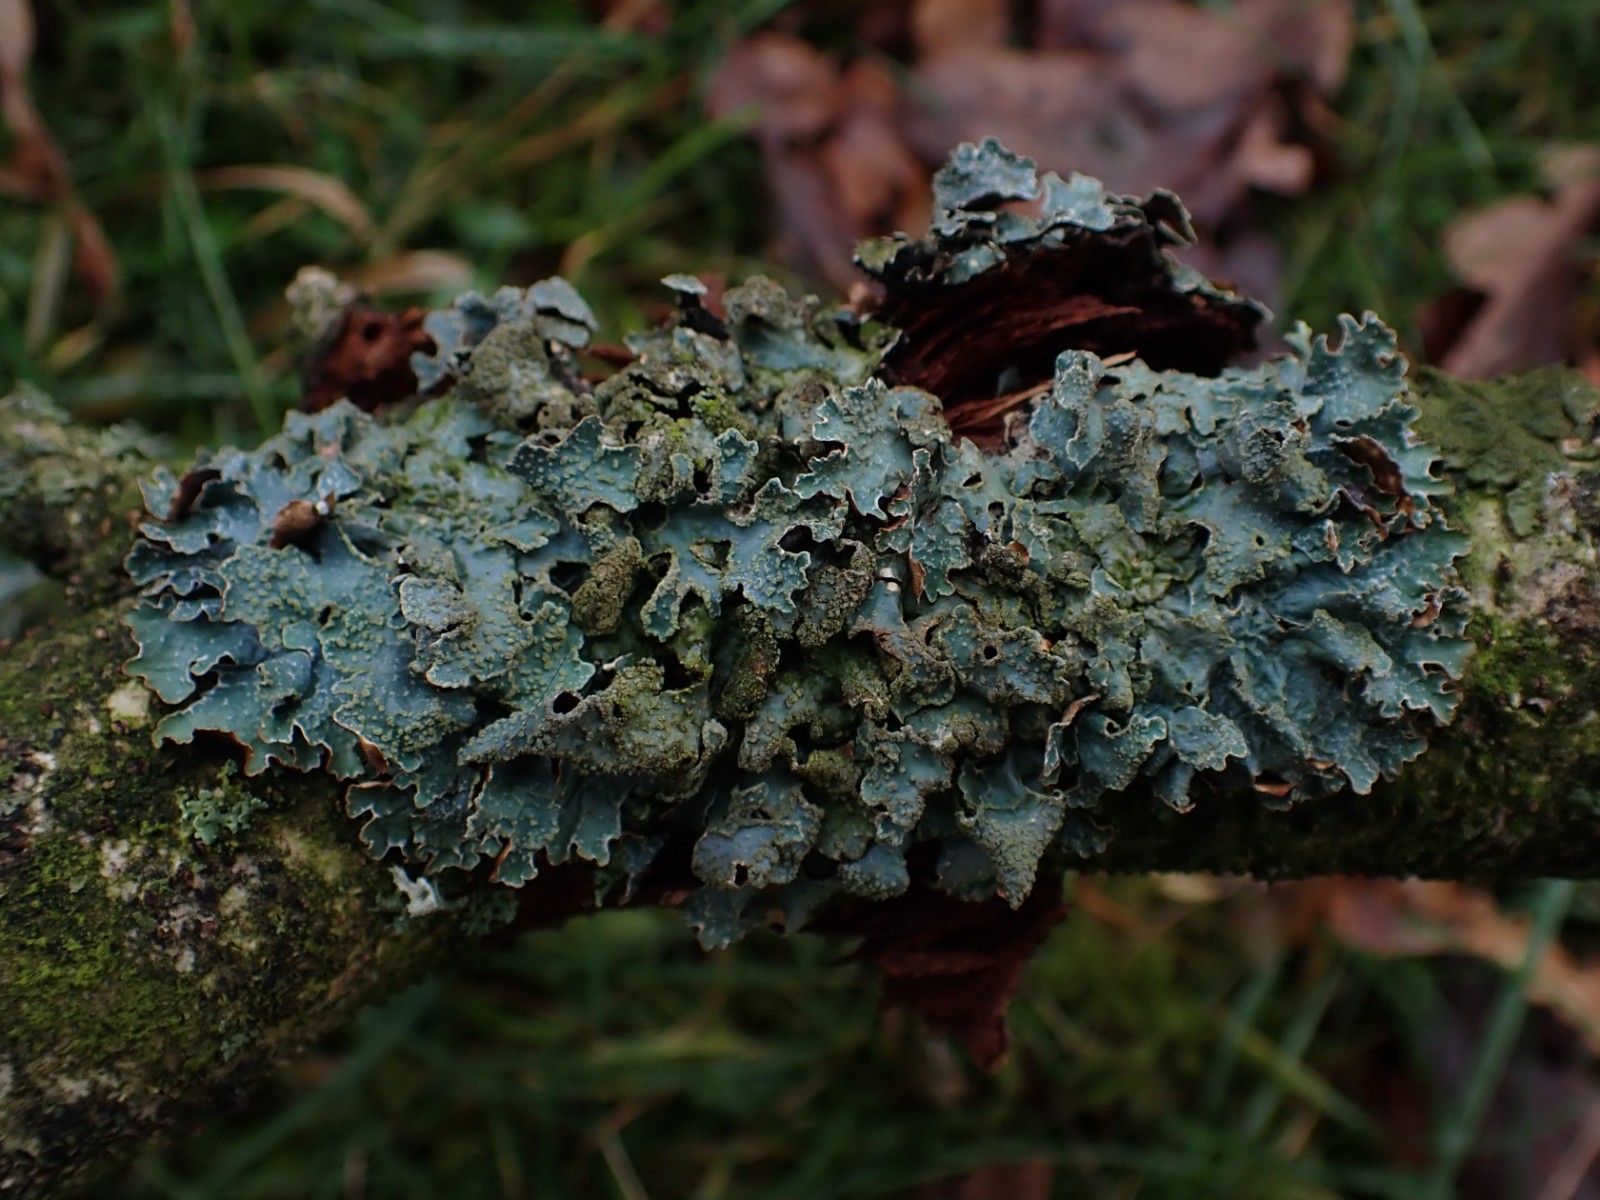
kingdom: Fungi
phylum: Ascomycota
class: Lecanoromycetes
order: Lecanorales
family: Parmeliaceae
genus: Parmelia
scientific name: Parmelia sulcata
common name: rynket skållav
